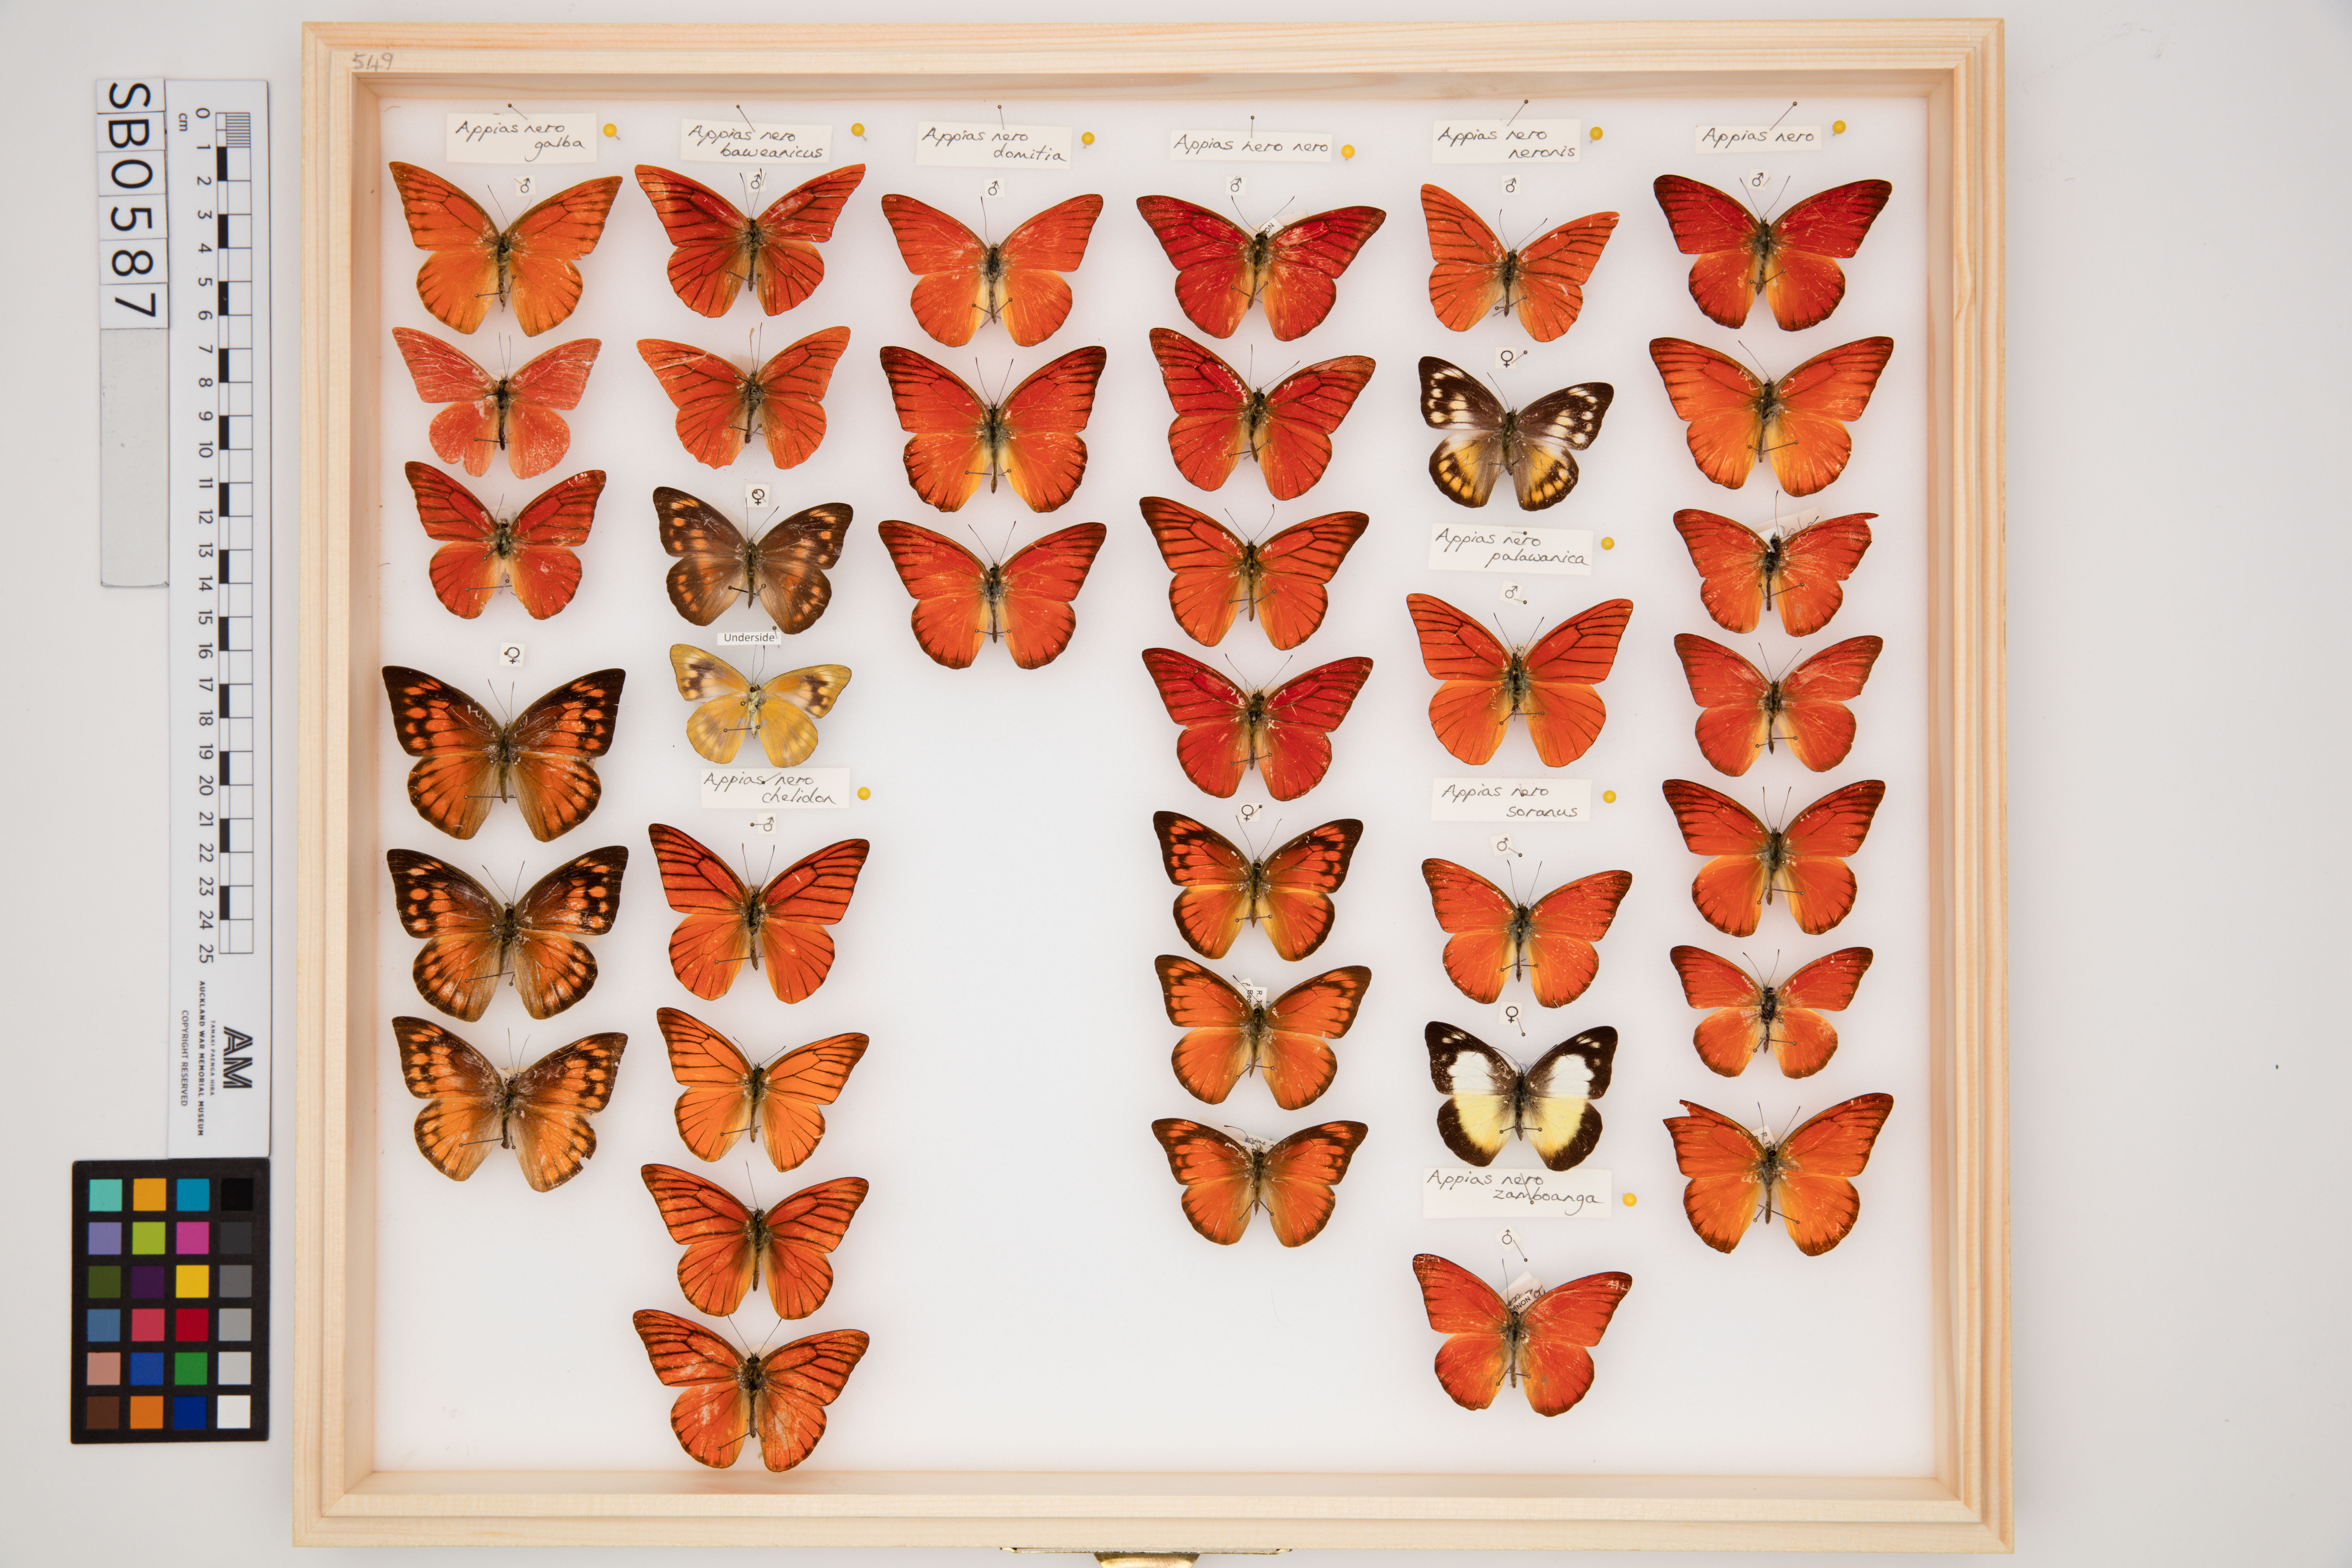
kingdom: Animalia
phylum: Arthropoda
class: Insecta
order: Lepidoptera
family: Pieridae
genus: Appias
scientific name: Appias nero
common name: Orange albatross
